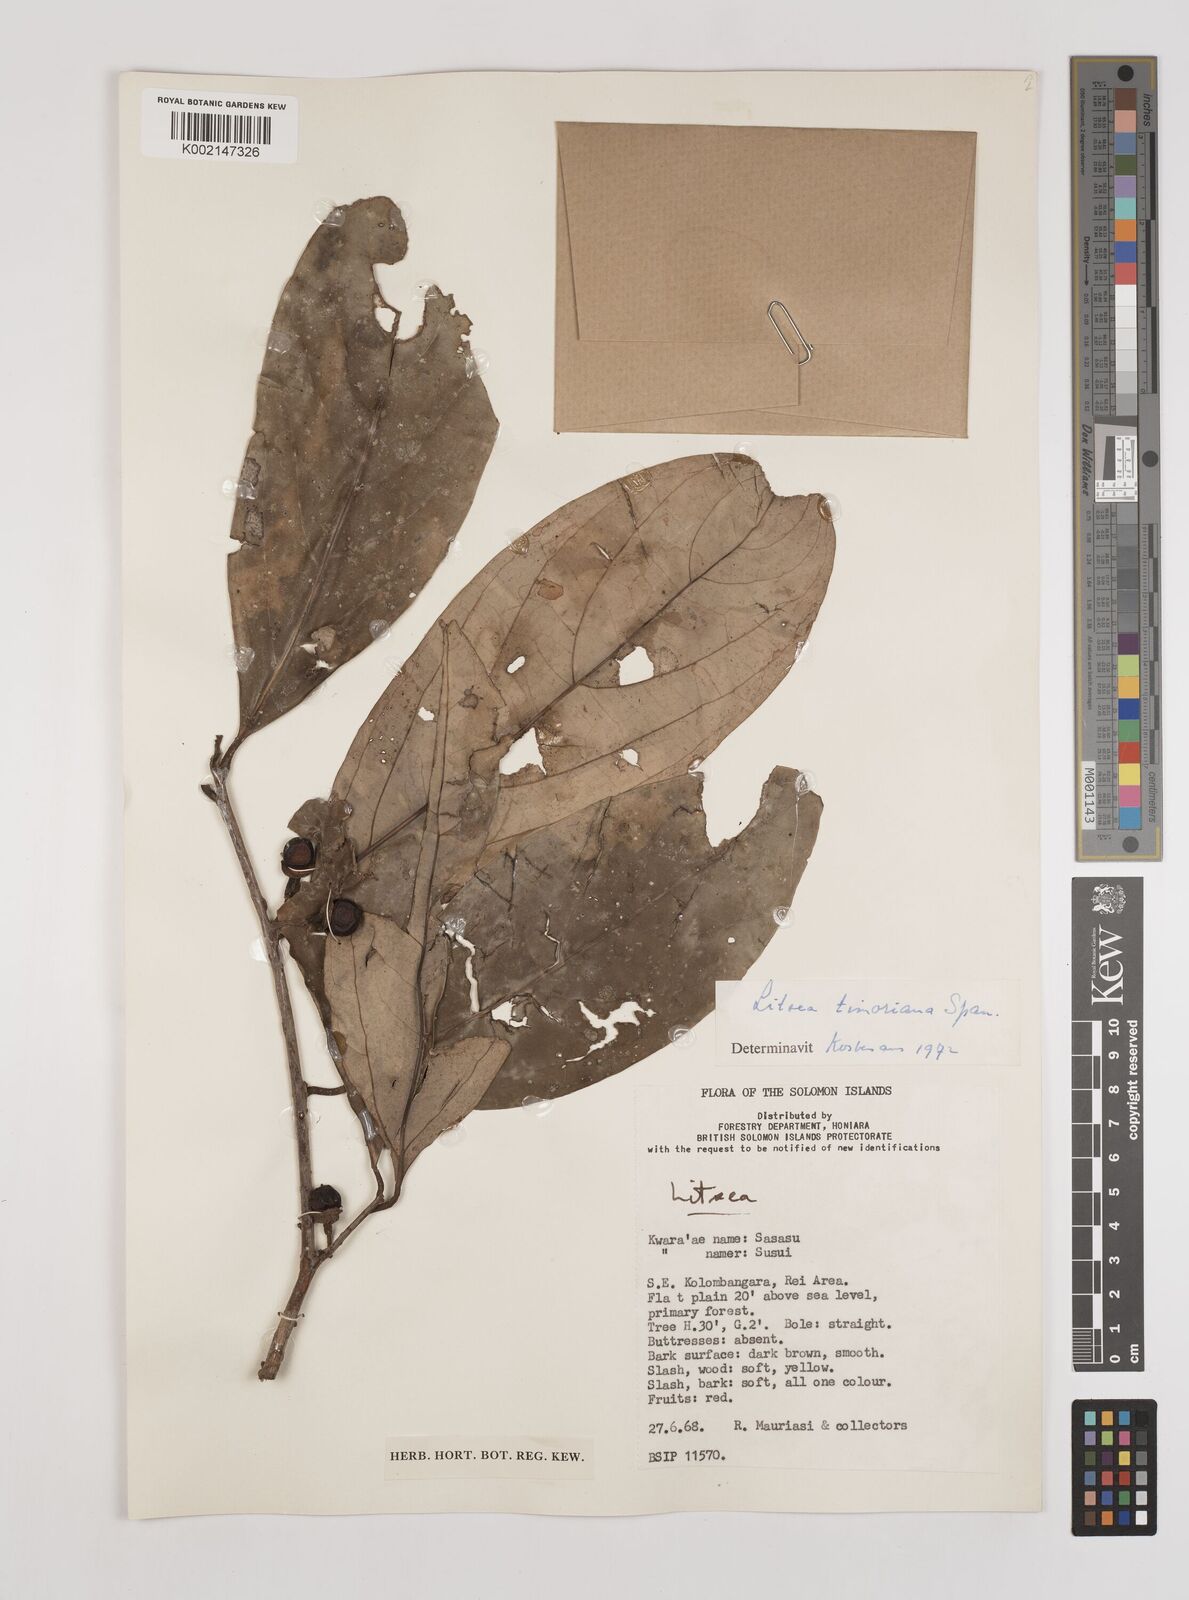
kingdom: Plantae
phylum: Tracheophyta
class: Magnoliopsida
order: Laurales
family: Lauraceae
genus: Litsea
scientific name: Litsea timoriana
